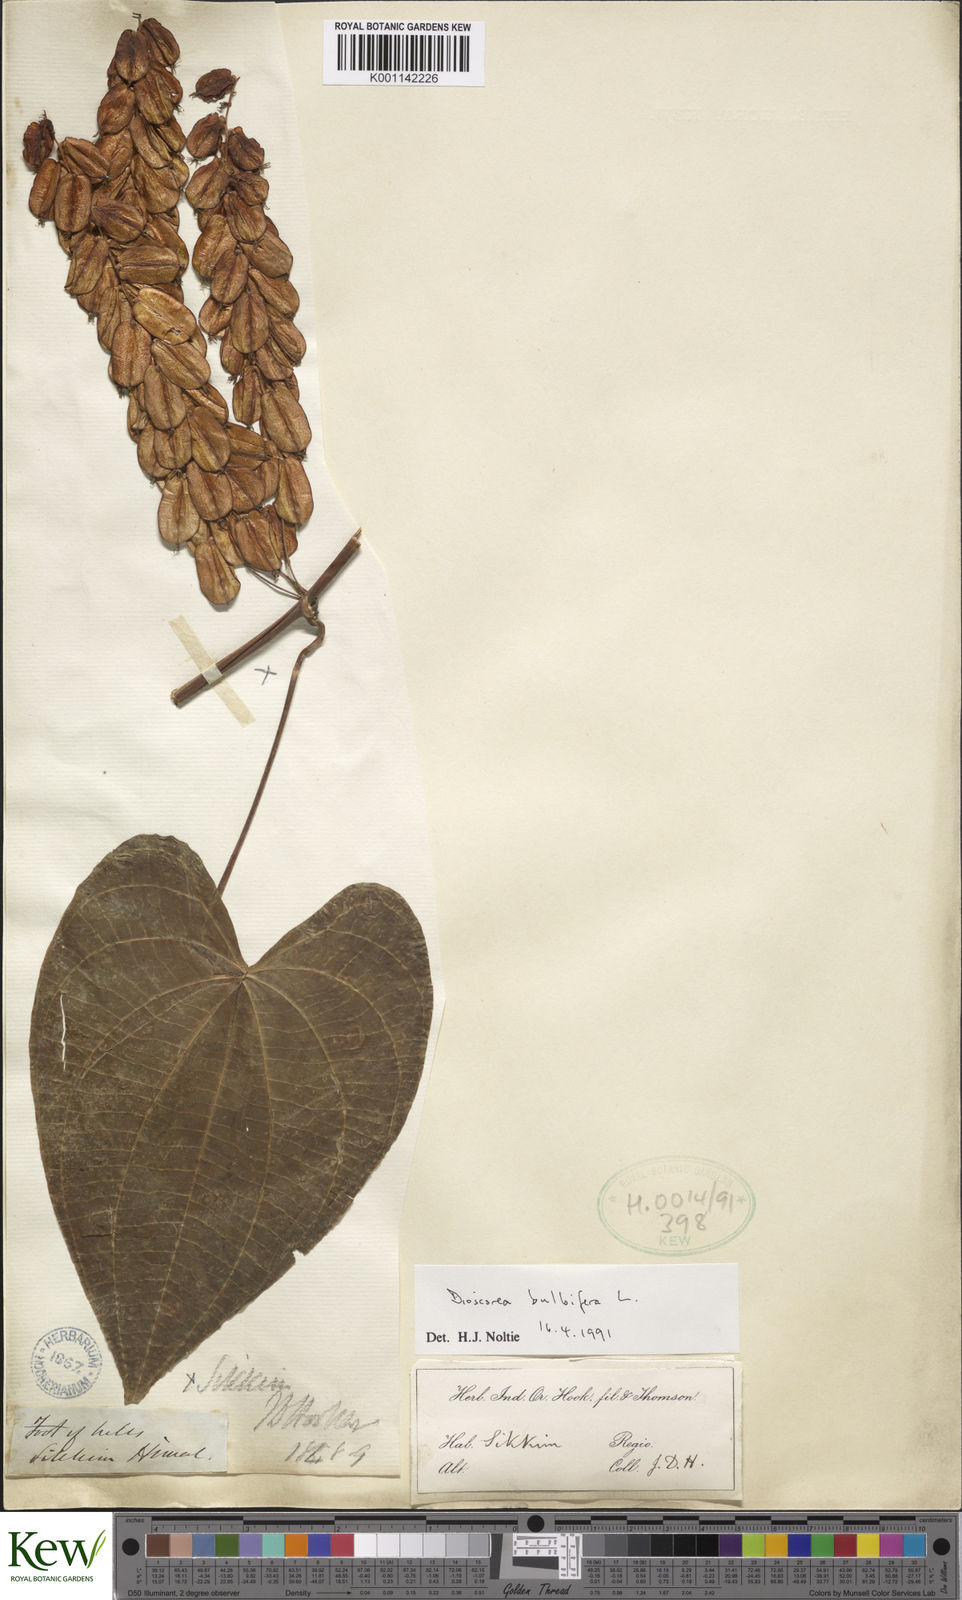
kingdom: Plantae
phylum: Tracheophyta
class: Liliopsida
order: Dioscoreales
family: Dioscoreaceae
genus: Dioscorea
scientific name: Dioscorea bulbifera
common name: Air yam
